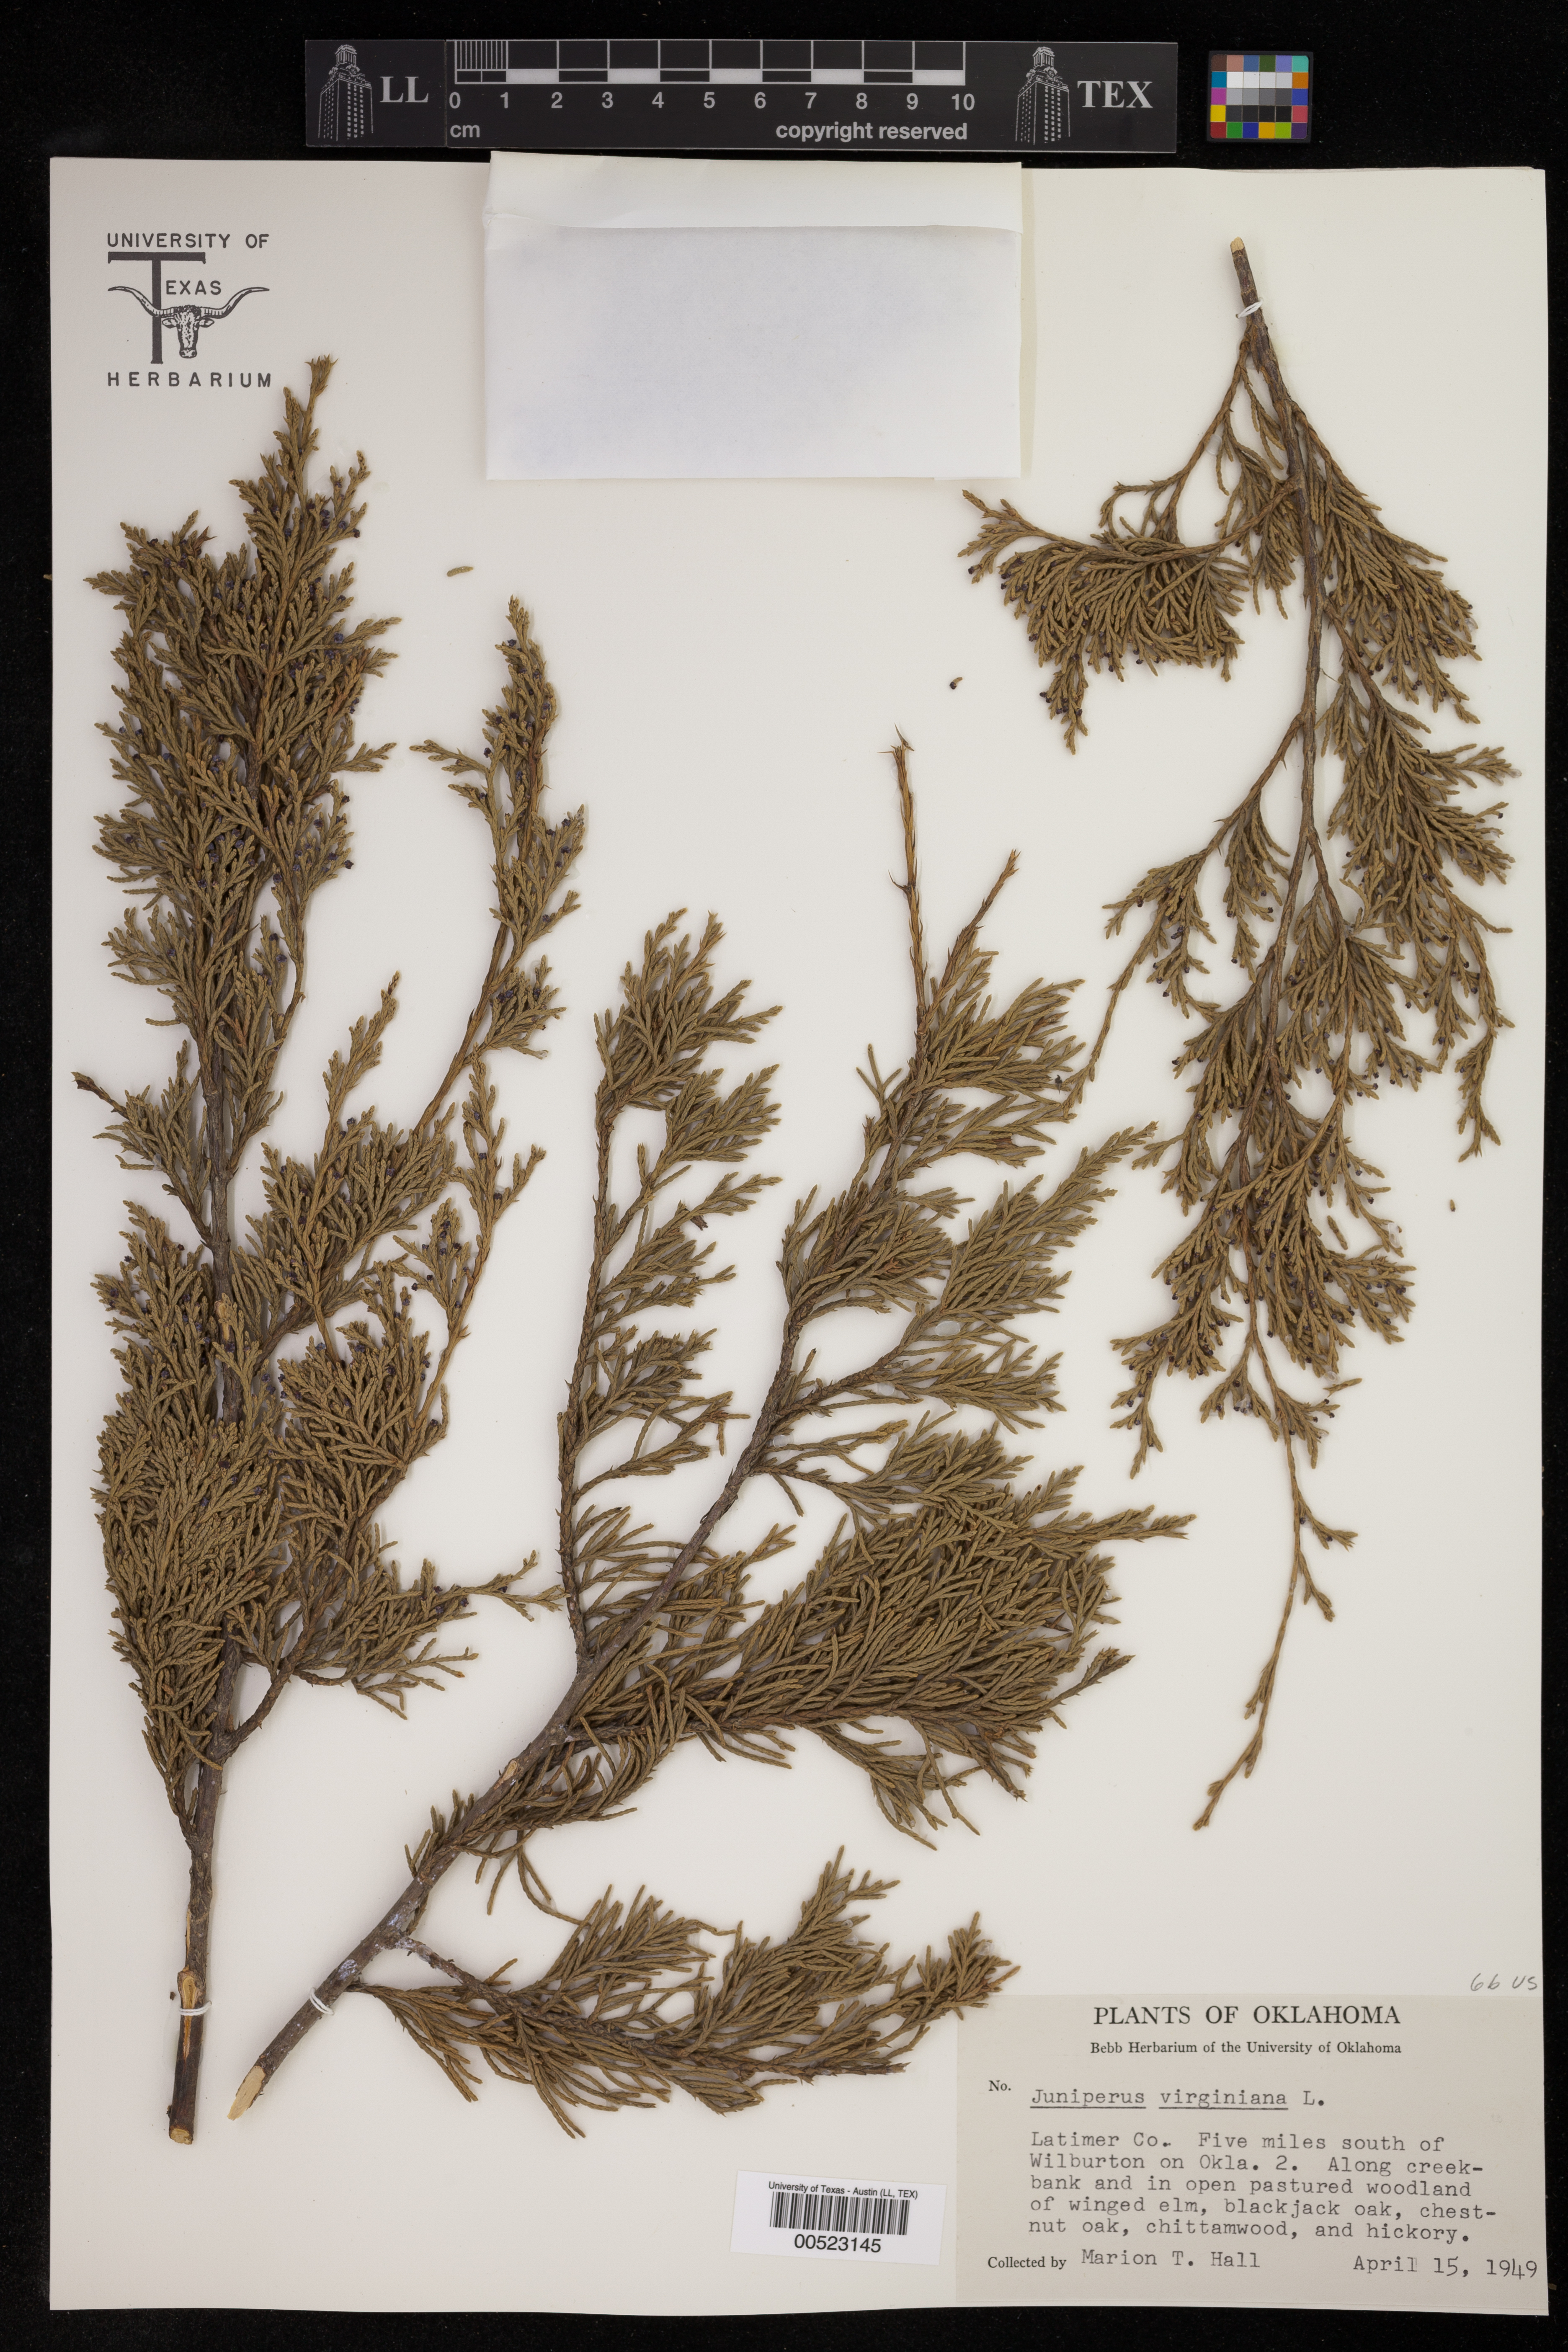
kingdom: Plantae
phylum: Tracheophyta
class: Pinopsida
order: Pinales
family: Cupressaceae
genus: Juniperus
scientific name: Juniperus virginiana
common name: Red juniper
